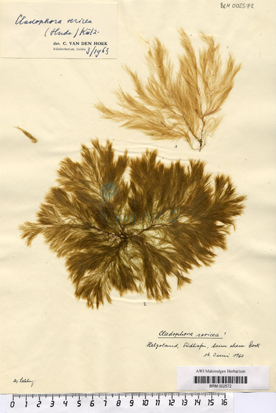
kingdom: Plantae
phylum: Chlorophyta
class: Ulvophyceae
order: Cladophorales
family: Cladophoraceae
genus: Cladophora
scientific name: Cladophora sericea
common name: Graceful green hair
